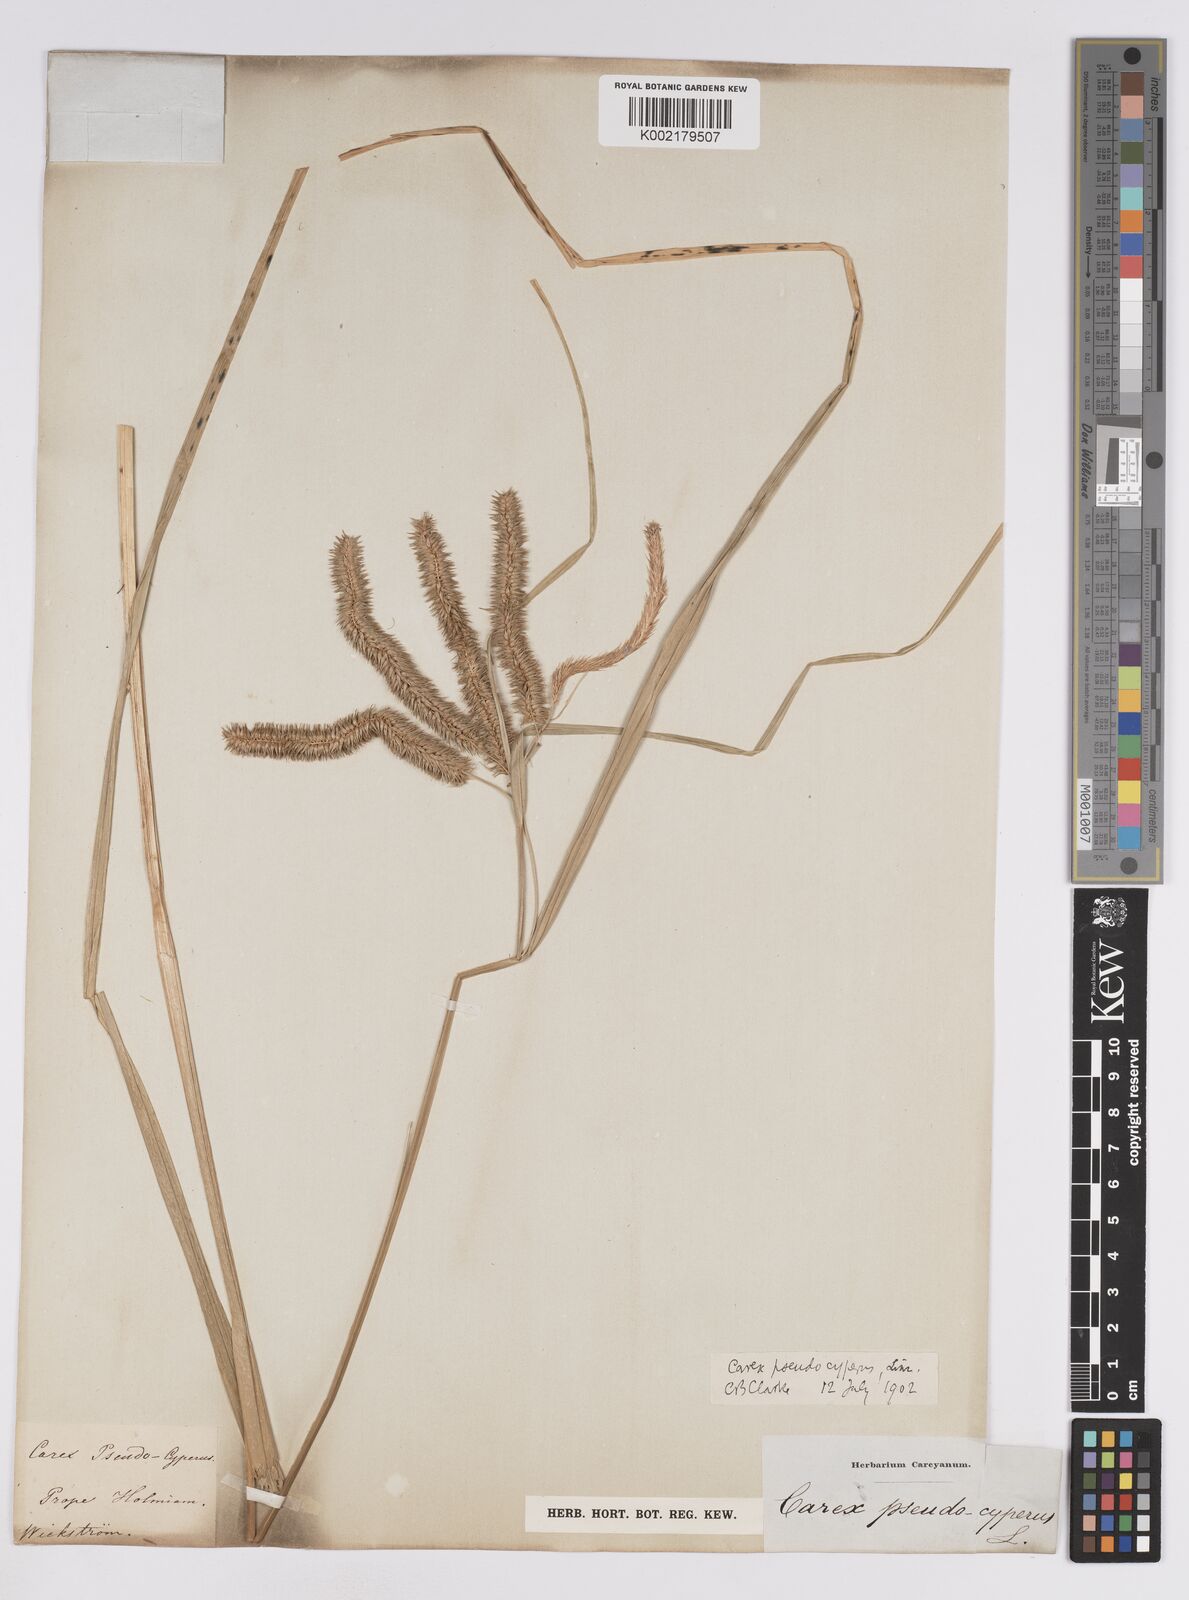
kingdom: Plantae
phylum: Tracheophyta
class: Liliopsida
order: Poales
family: Cyperaceae
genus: Carex
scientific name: Carex pseudocyperus
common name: Cyperus sedge
